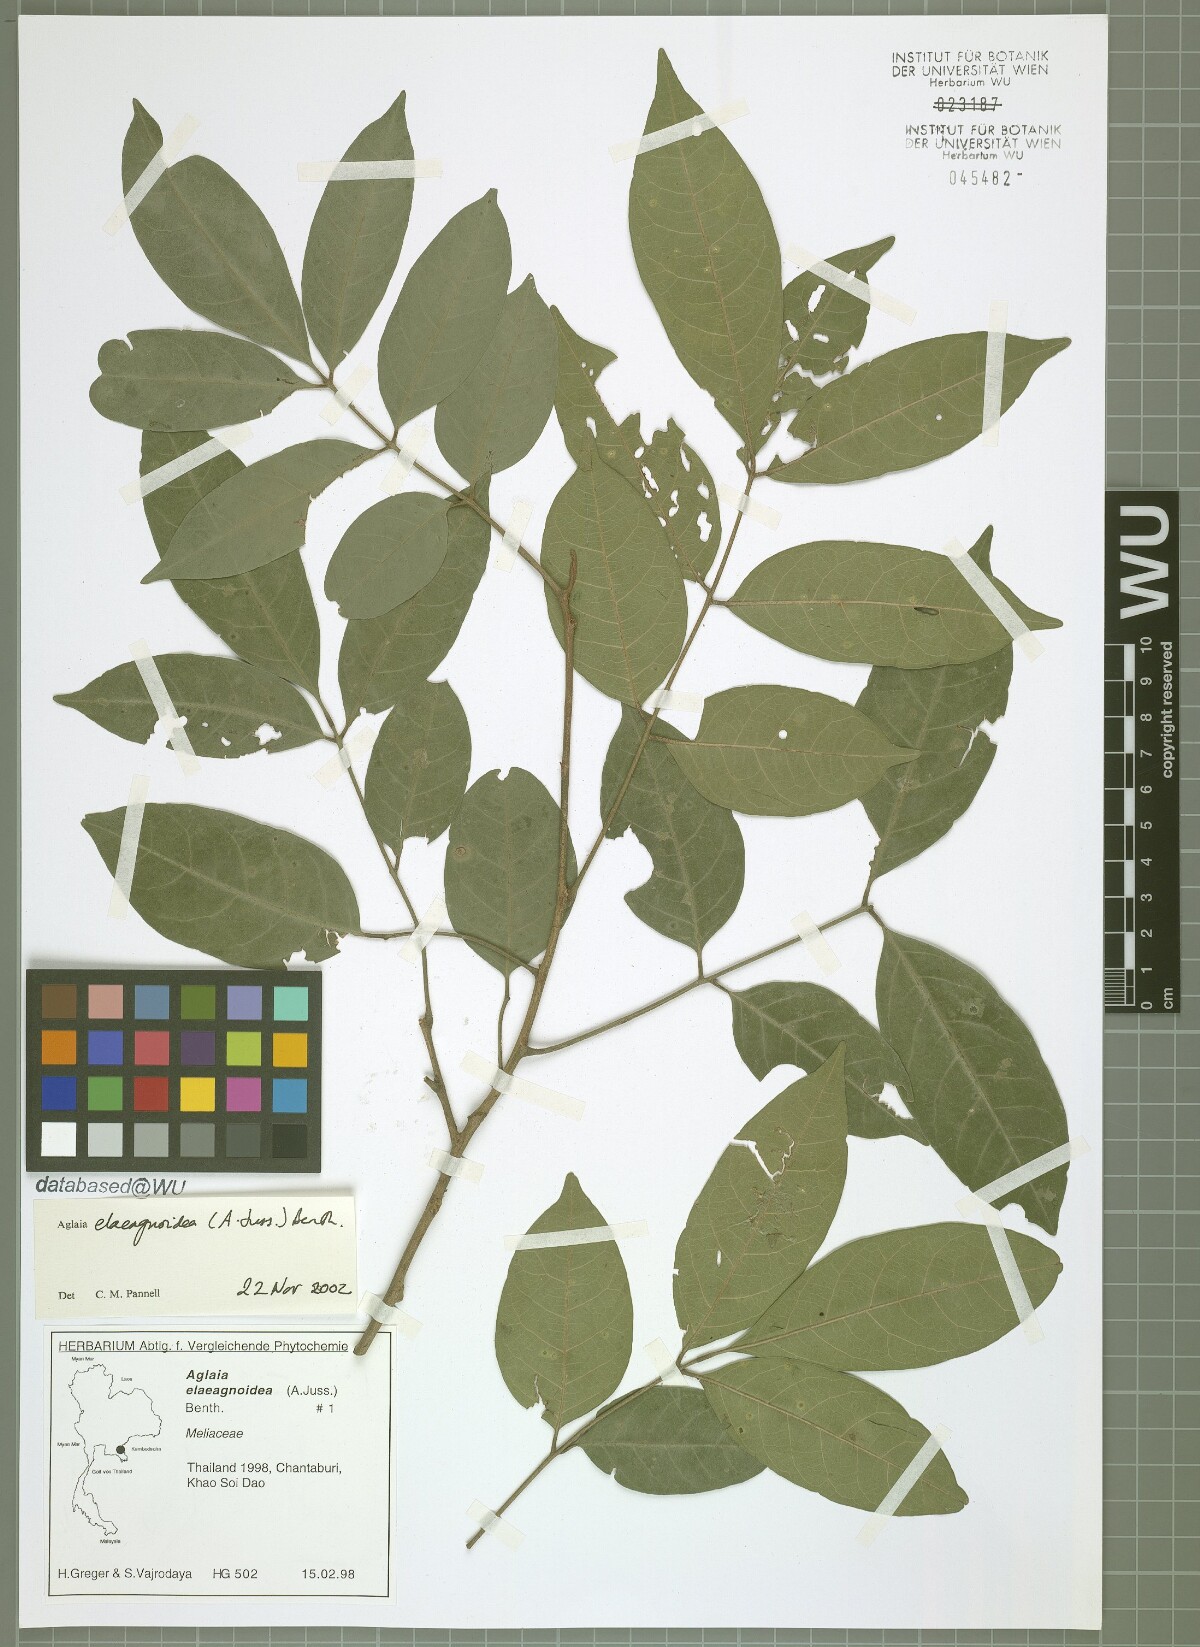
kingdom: Plantae
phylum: Tracheophyta
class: Magnoliopsida
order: Sapindales
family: Meliaceae
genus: Aglaia
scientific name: Aglaia elaeagnoidea
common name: Droopyleaf
